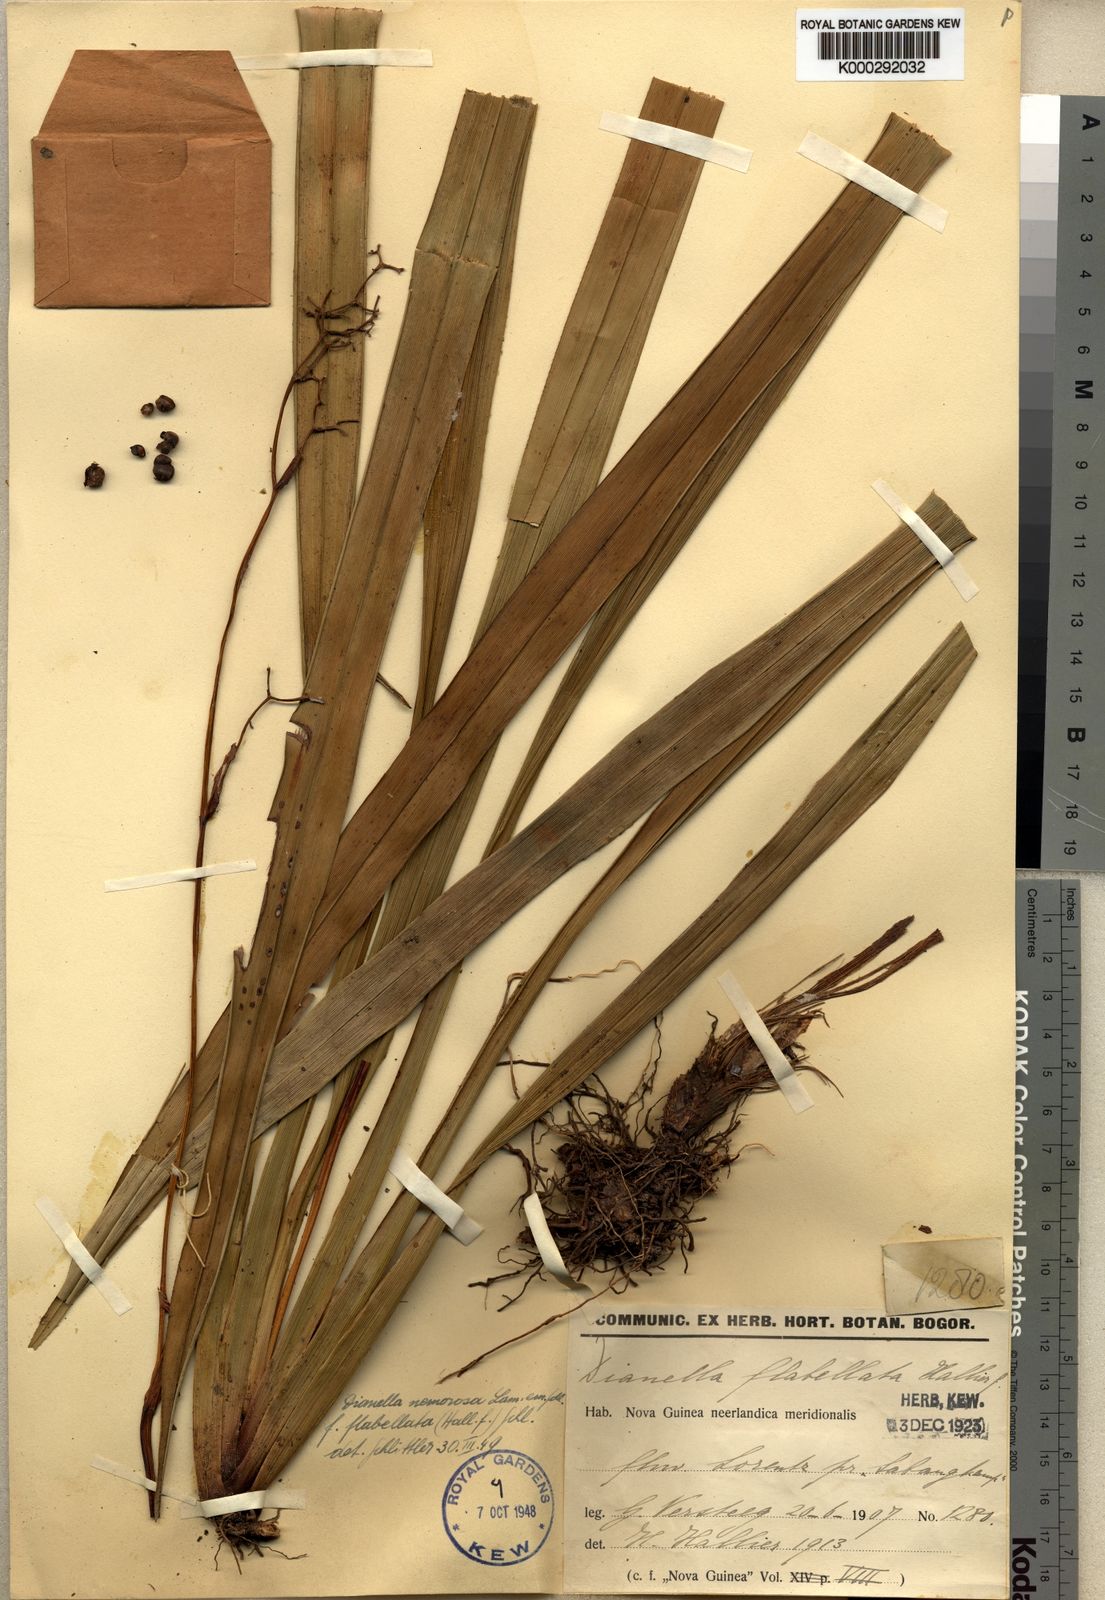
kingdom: Plantae
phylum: Tracheophyta
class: Liliopsida
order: Asparagales
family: Asphodelaceae
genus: Dianella
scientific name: Dianella ensifolia
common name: New zealand lilyplant
